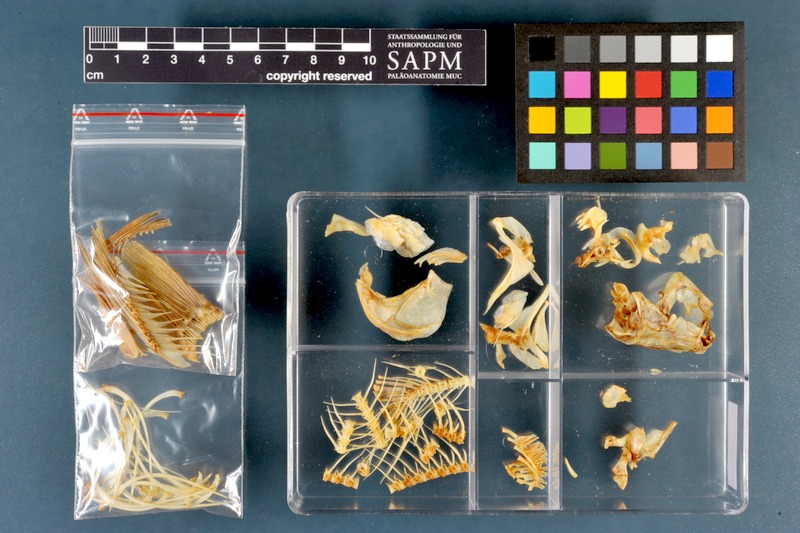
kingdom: Animalia
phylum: Chordata
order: Cypriniformes
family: Cyprinidae
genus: Rutilus
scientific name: Rutilus rutilus
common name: Roach
